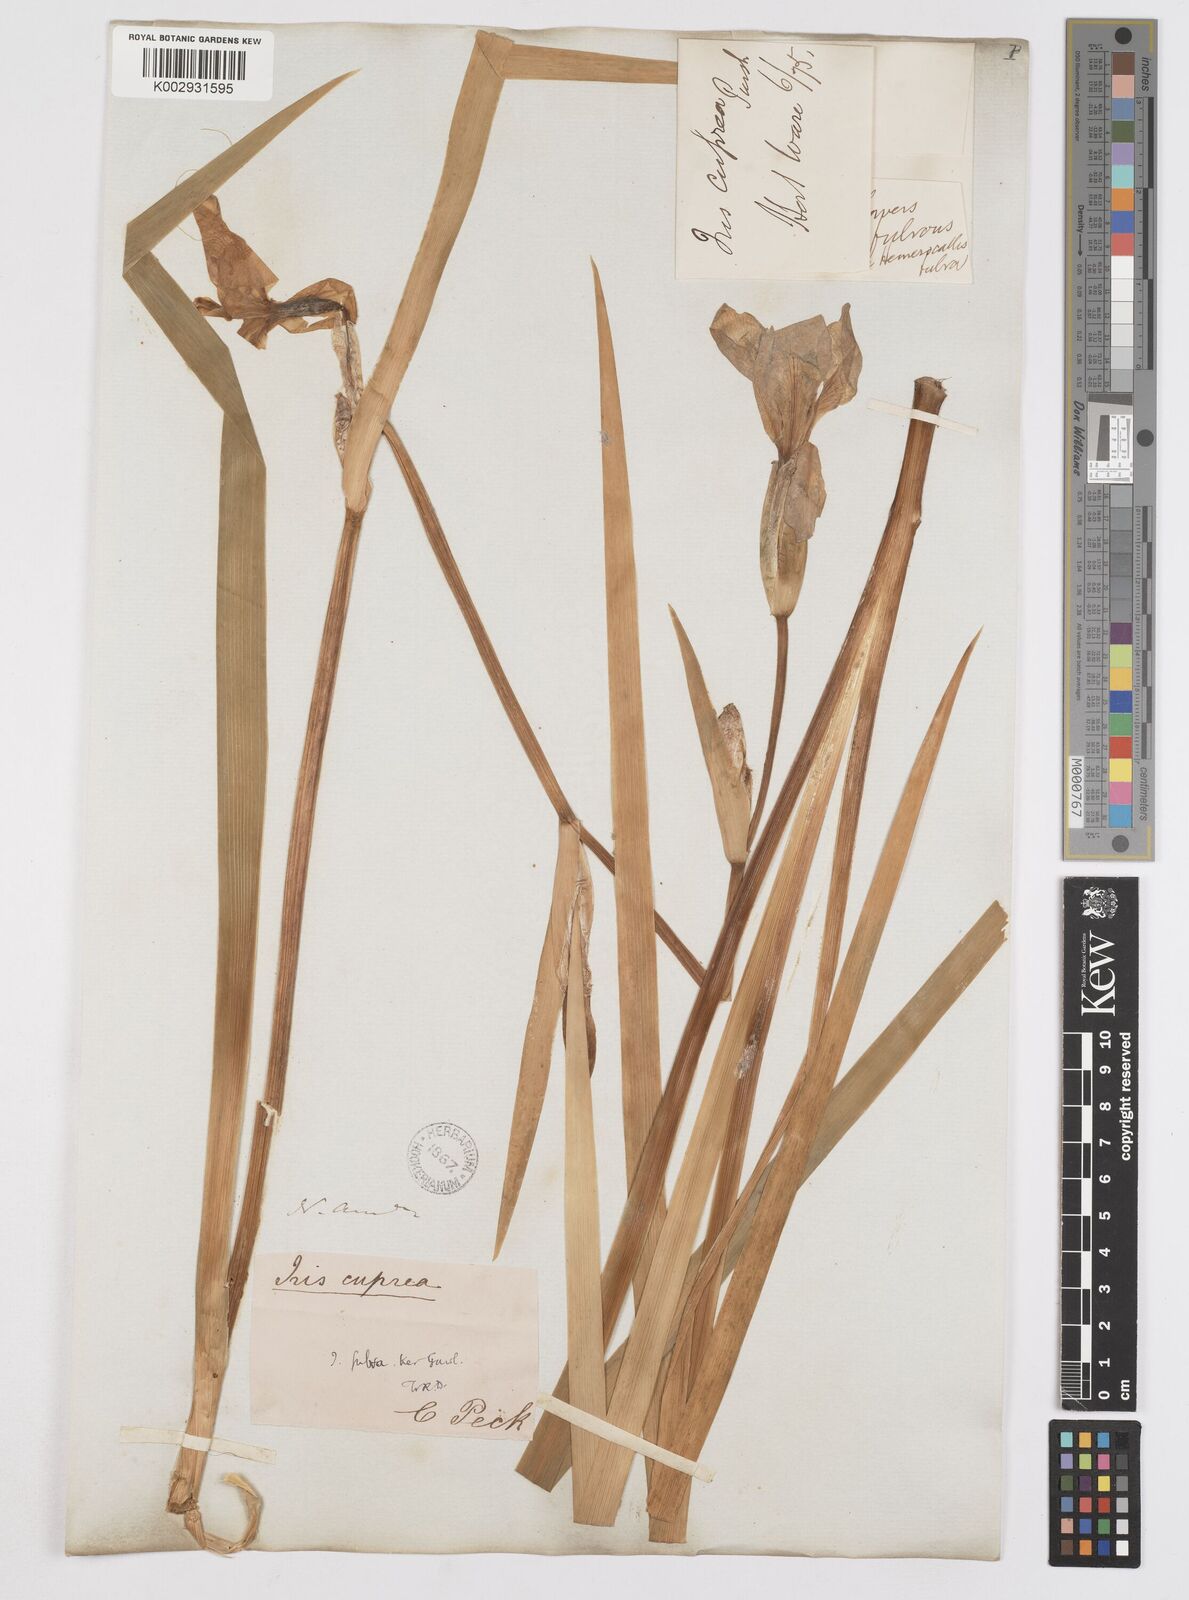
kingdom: Plantae
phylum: Tracheophyta
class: Liliopsida
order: Asparagales
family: Iridaceae
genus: Iris
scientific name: Iris fulva
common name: Copper iris
